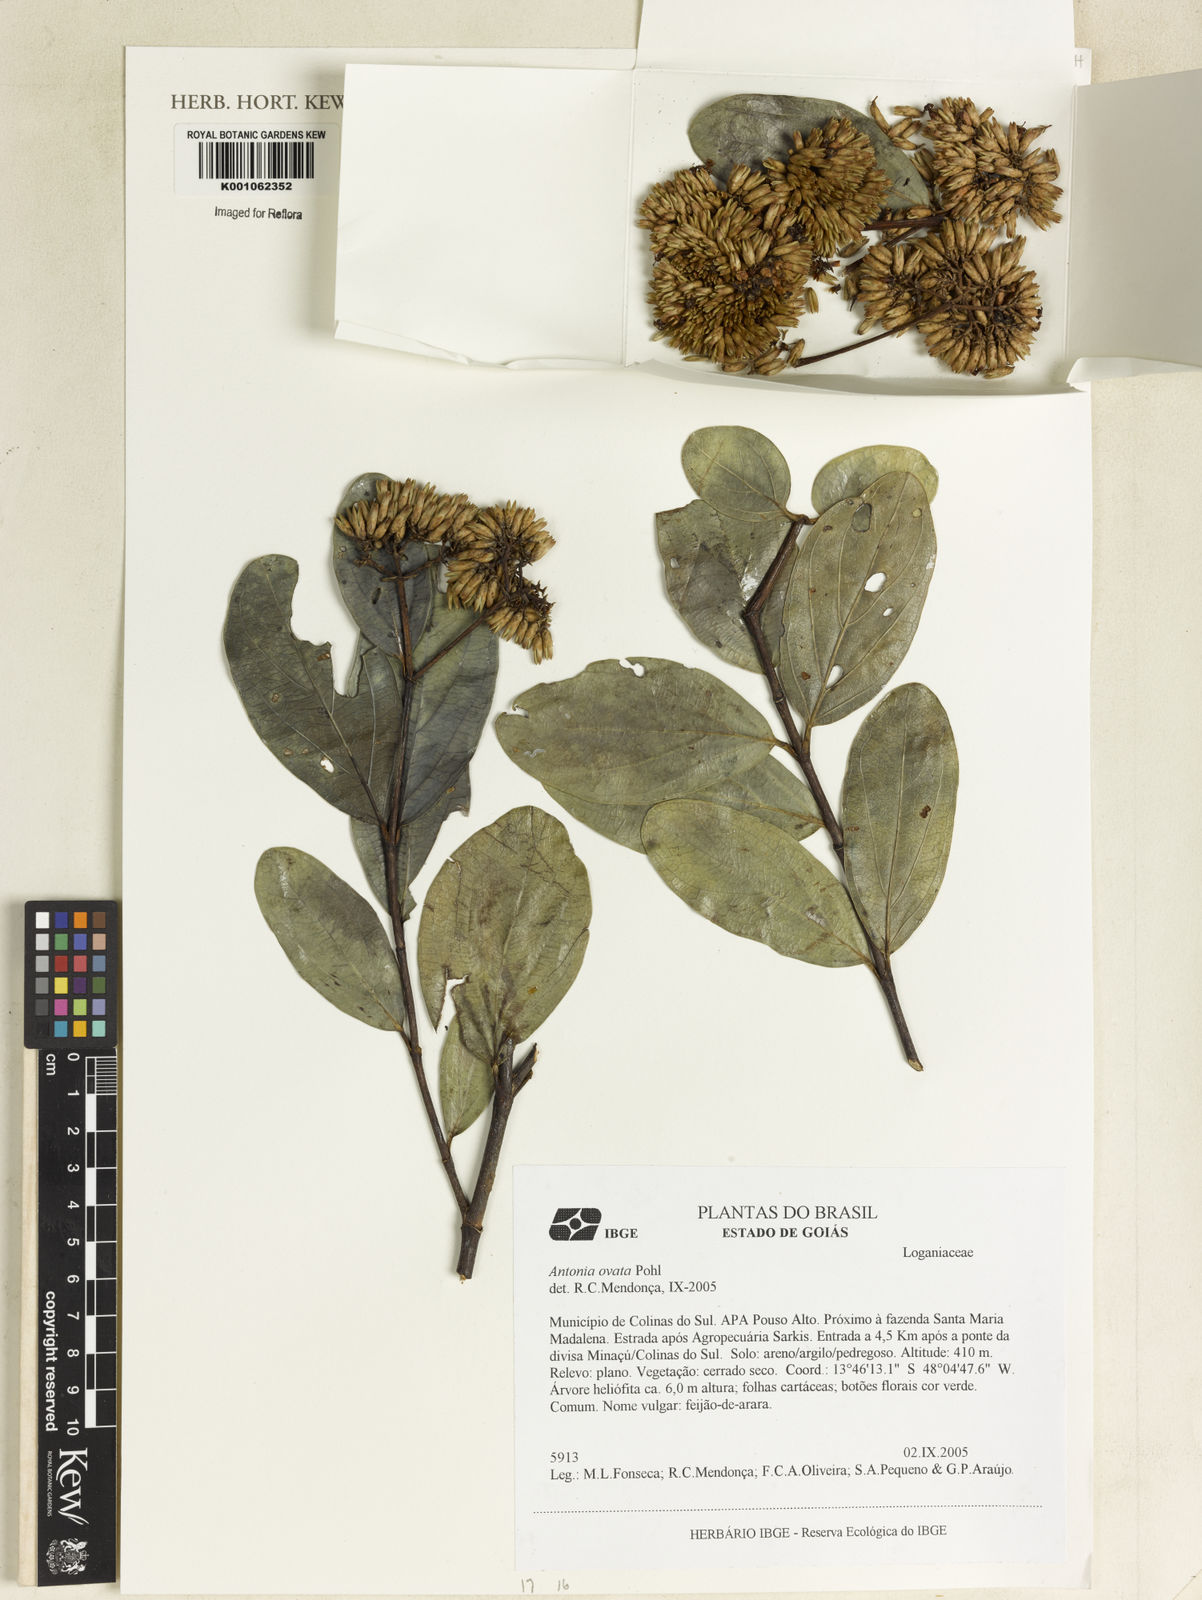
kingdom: Plantae
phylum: Tracheophyta
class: Magnoliopsida
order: Gentianales
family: Loganiaceae
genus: Antonia
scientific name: Antonia ovata
